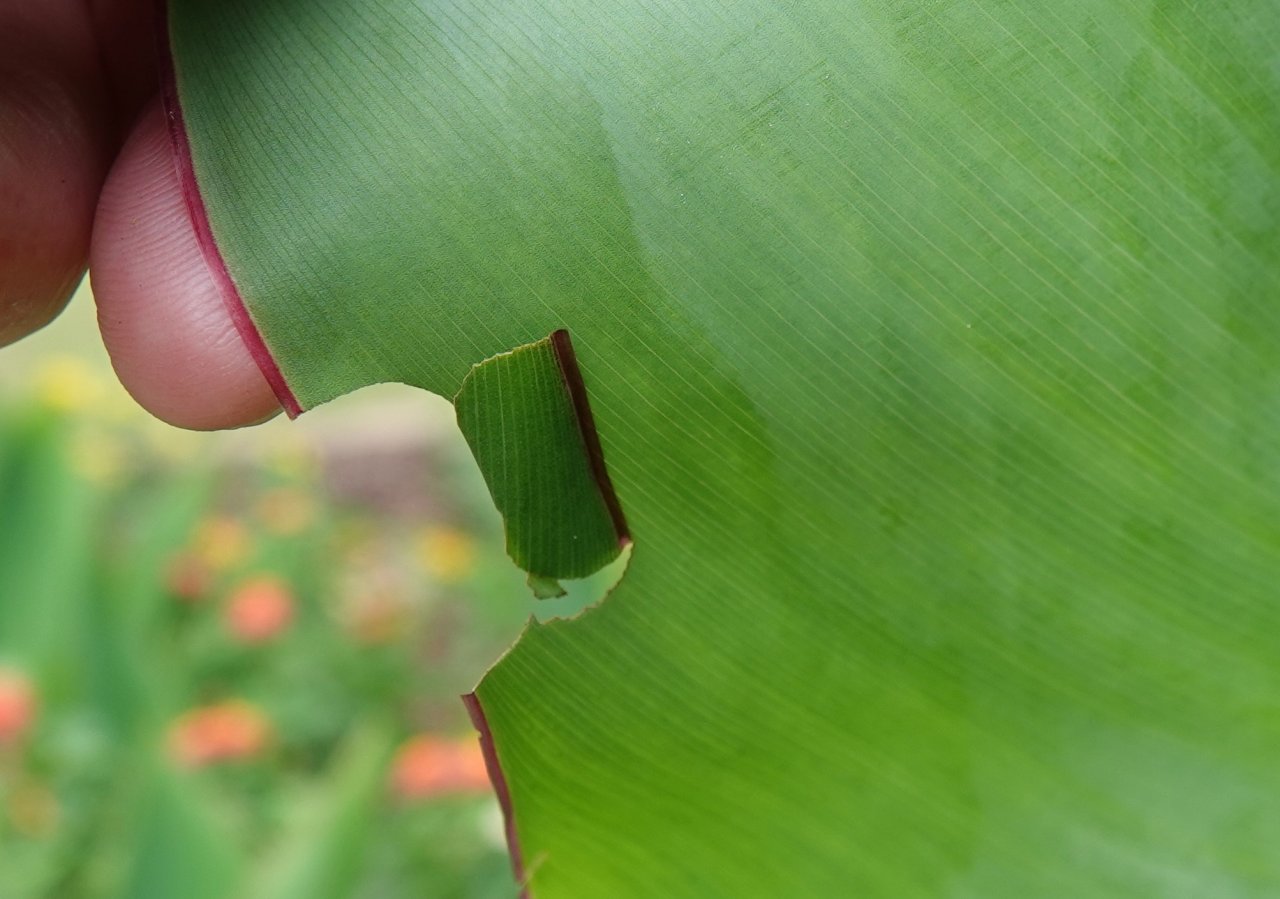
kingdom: Animalia
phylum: Arthropoda
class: Insecta
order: Lepidoptera
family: Hesperiidae
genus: Calpodes
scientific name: Calpodes ethlius
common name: Brazilian Skipper
